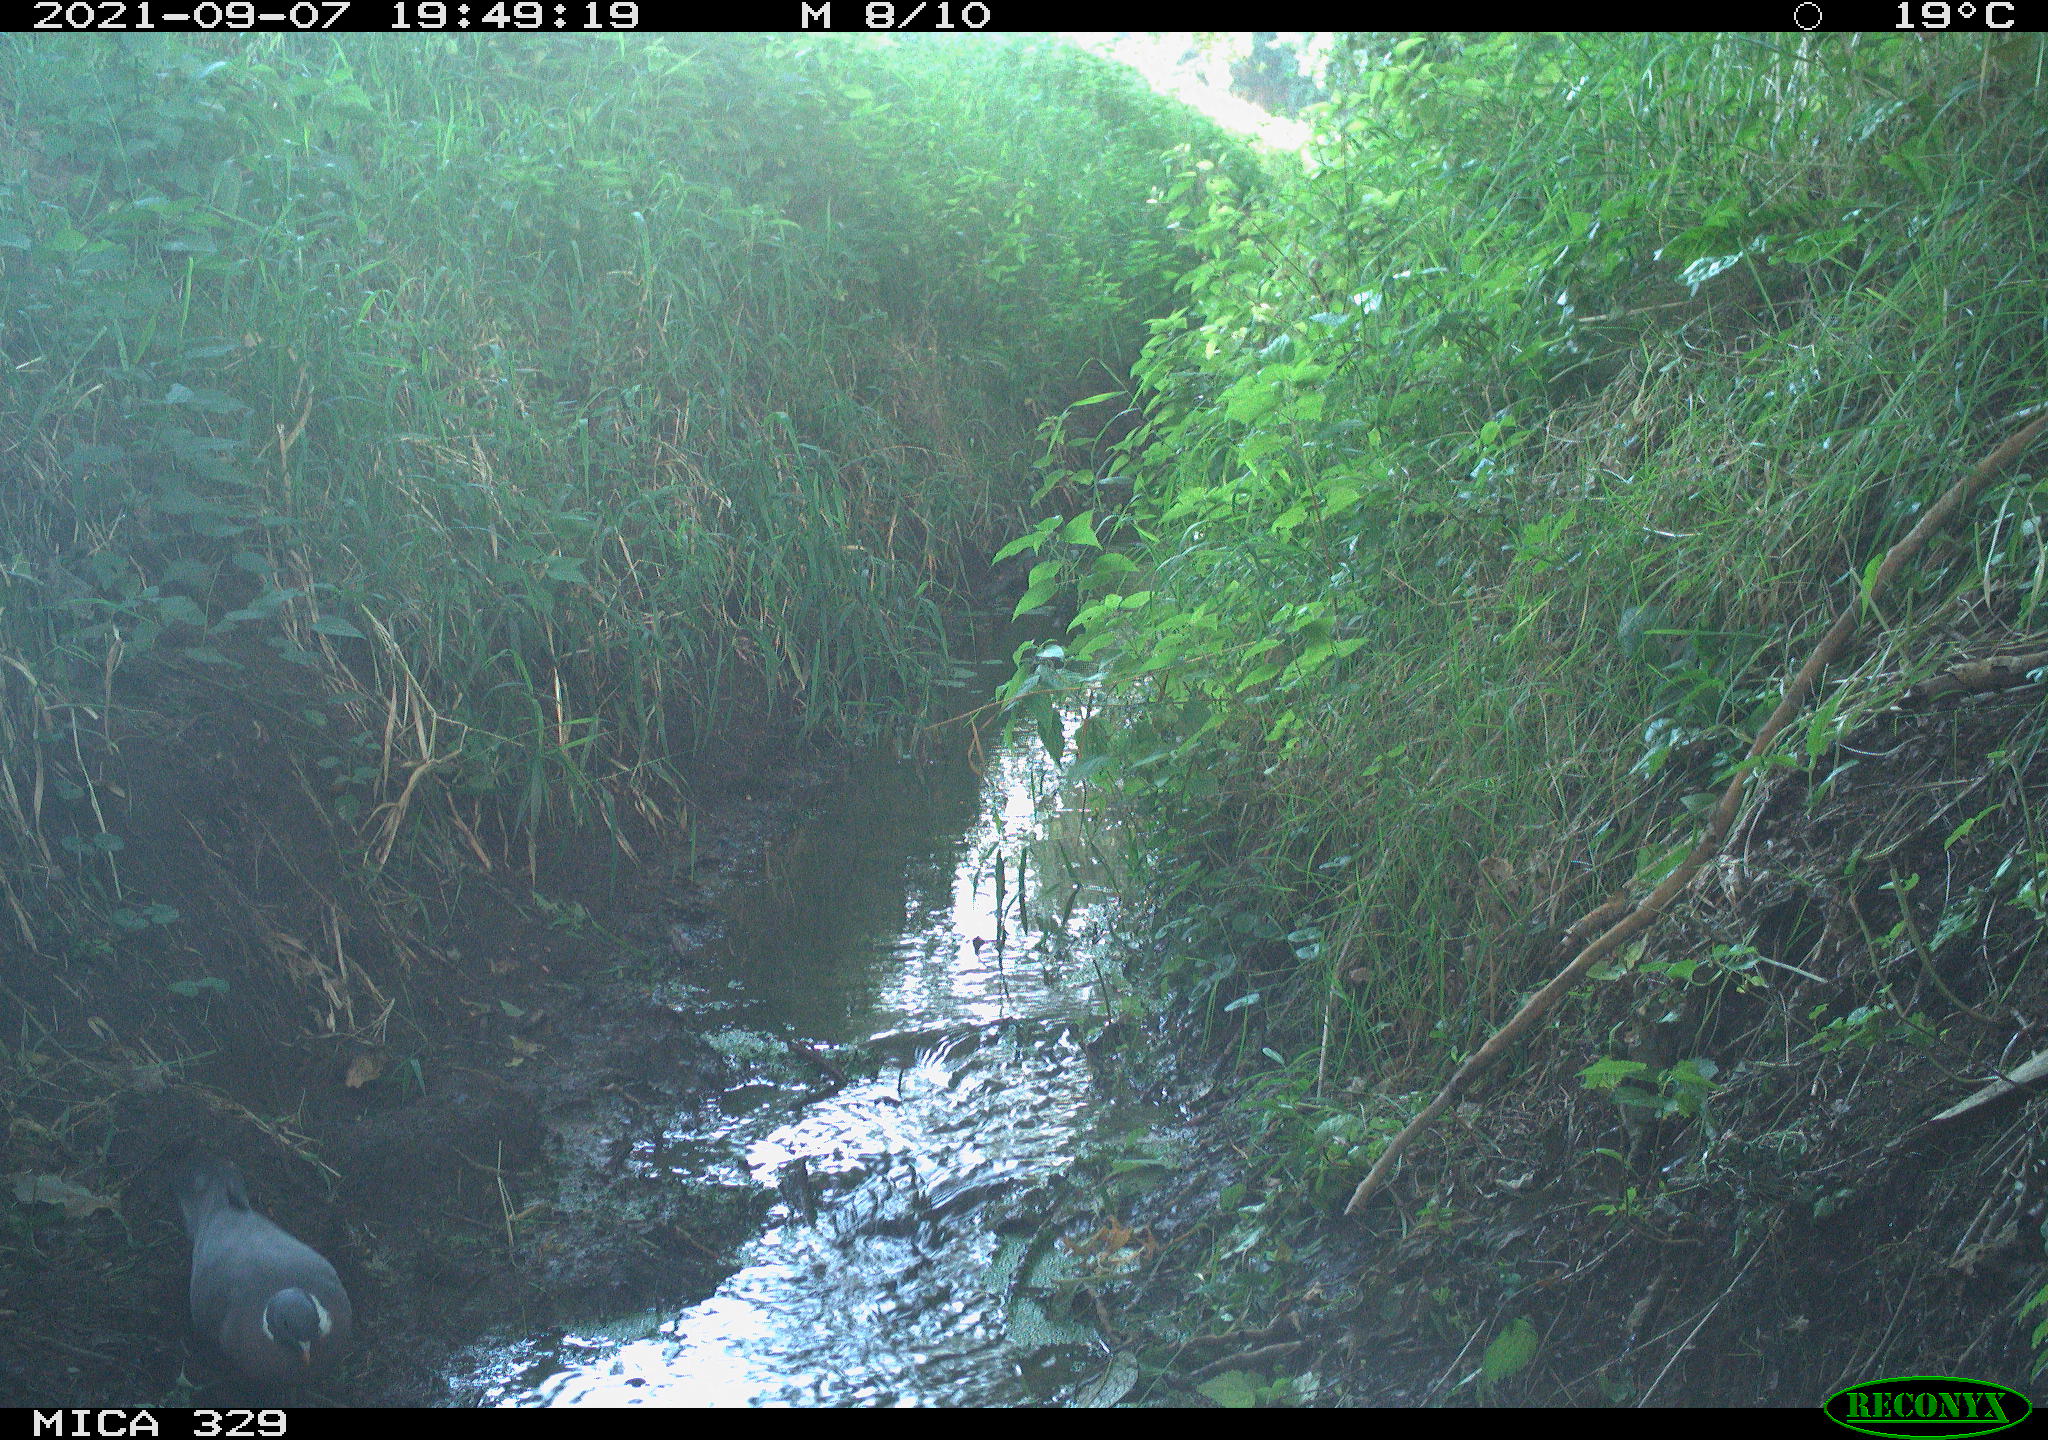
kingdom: Animalia
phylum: Chordata
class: Aves
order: Columbiformes
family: Columbidae
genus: Columba
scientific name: Columba palumbus
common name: Common wood pigeon
